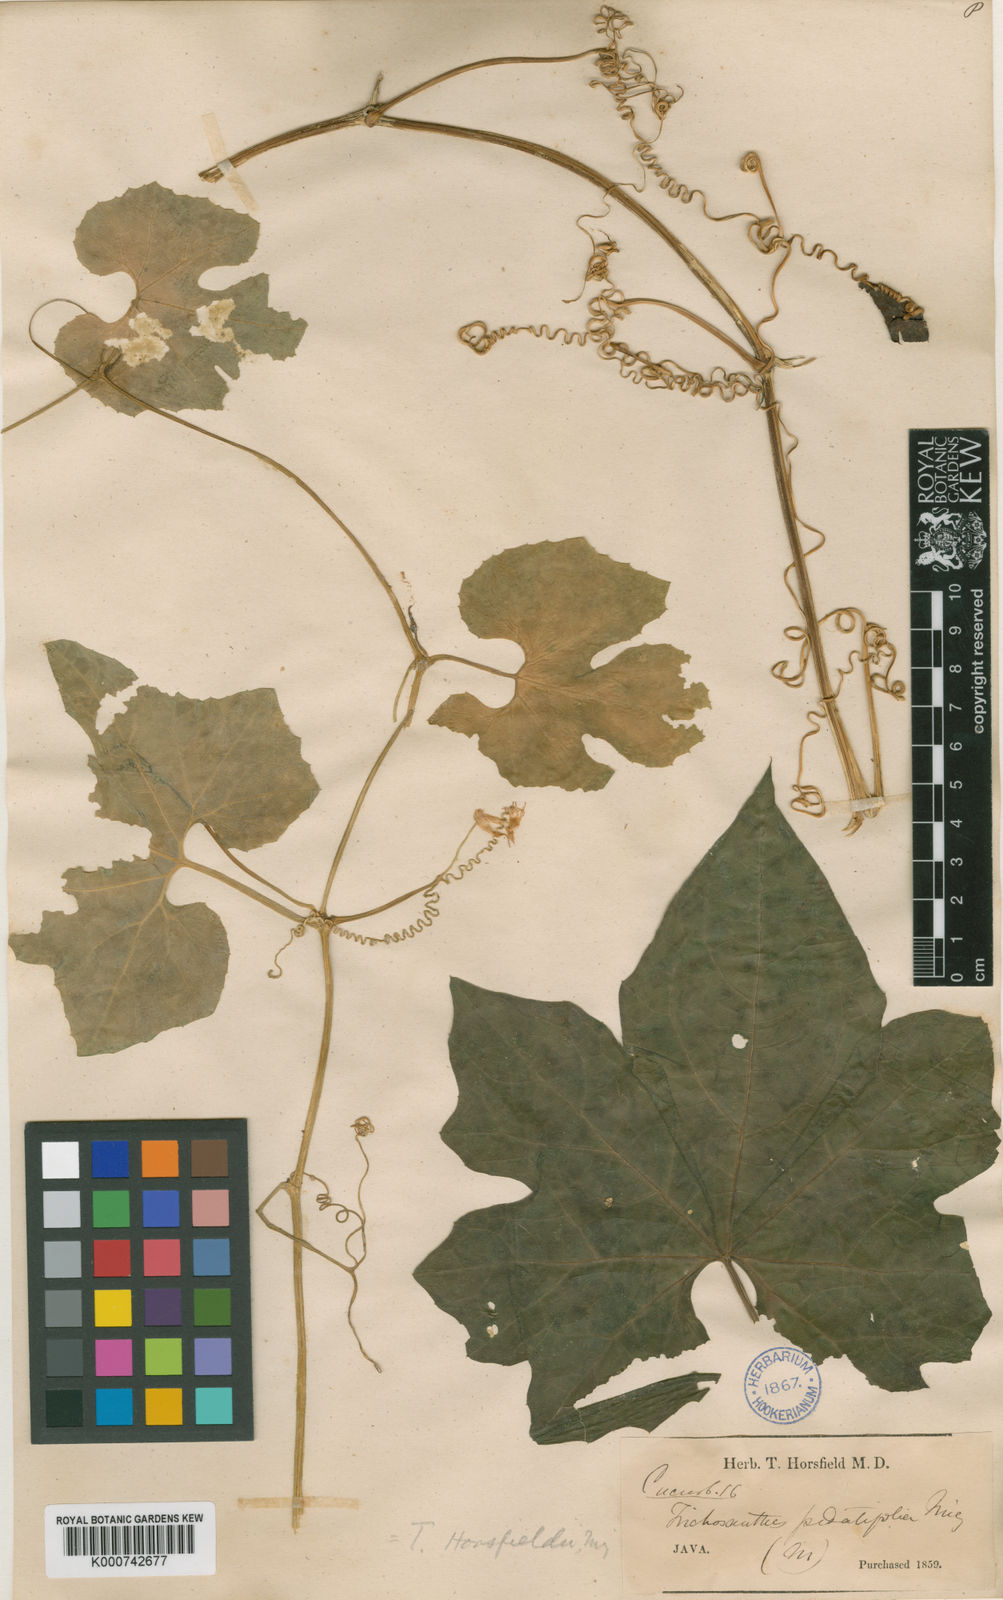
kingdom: Plantae
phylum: Tracheophyta
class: Magnoliopsida
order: Cucurbitales
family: Cucurbitaceae
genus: Trichosanthes
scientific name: Trichosanthes ovigera
